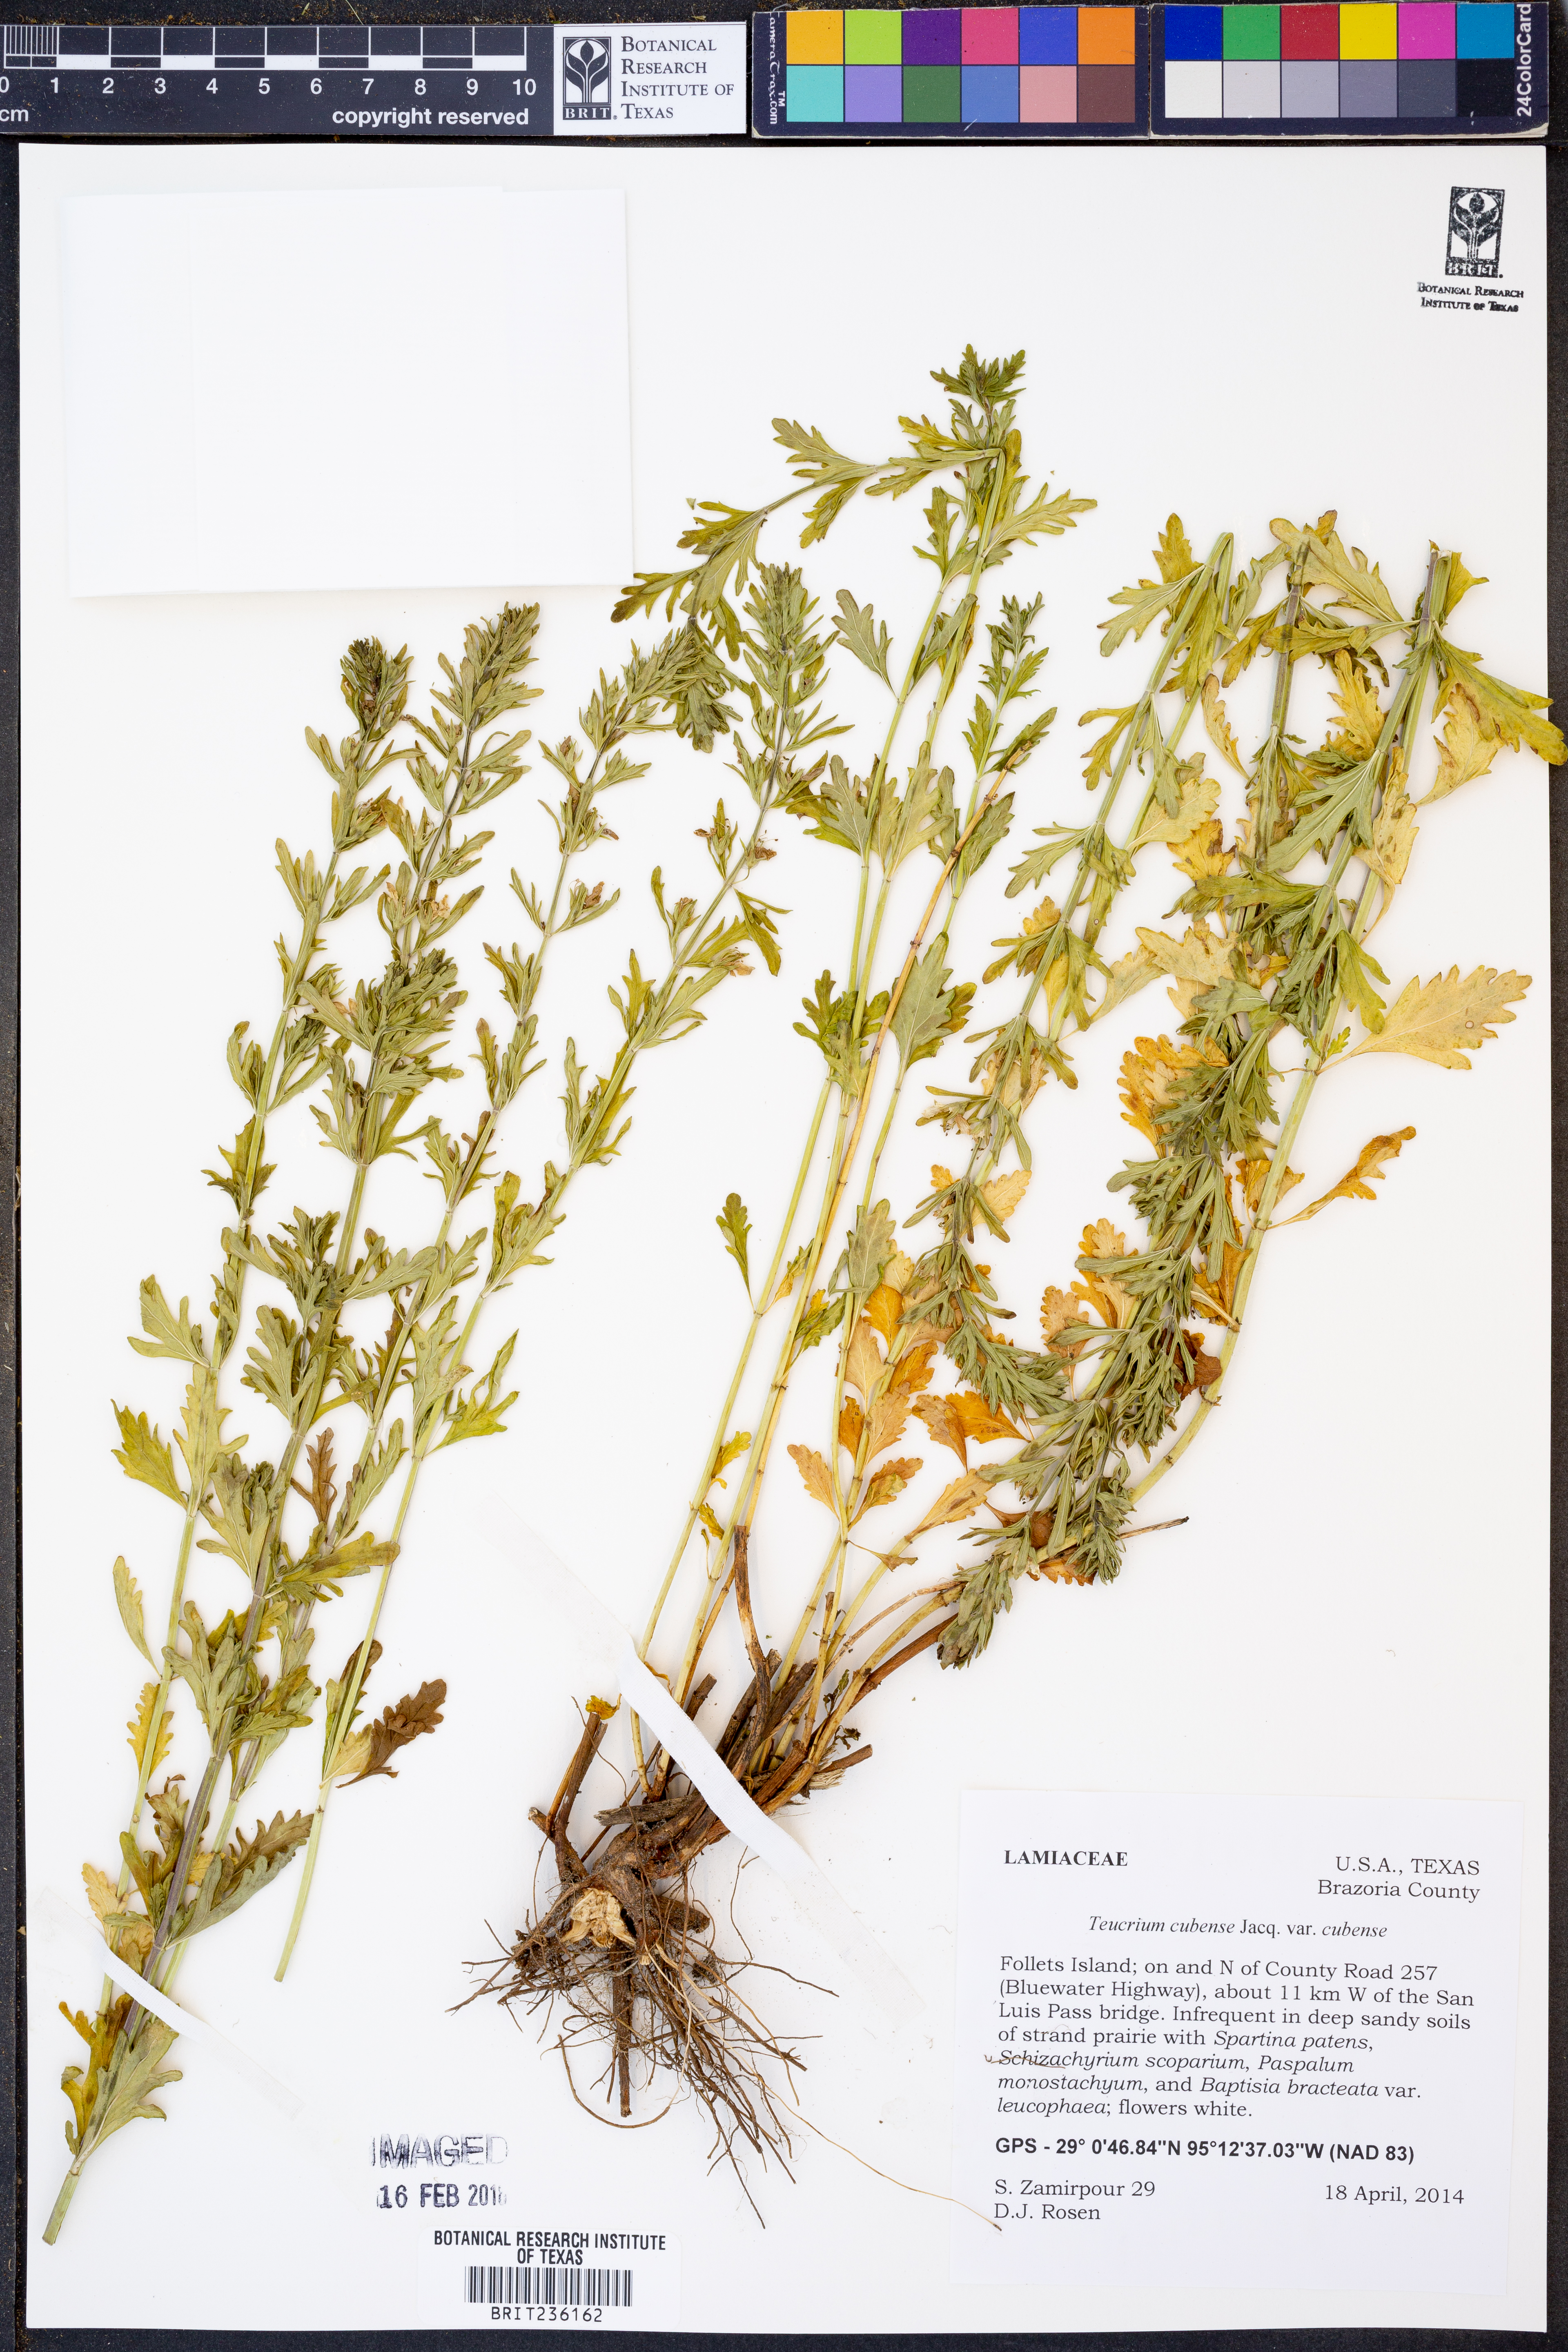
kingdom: Plantae
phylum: Tracheophyta
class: Magnoliopsida
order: Lamiales
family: Lamiaceae
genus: Teucrium
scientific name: Teucrium cubense
